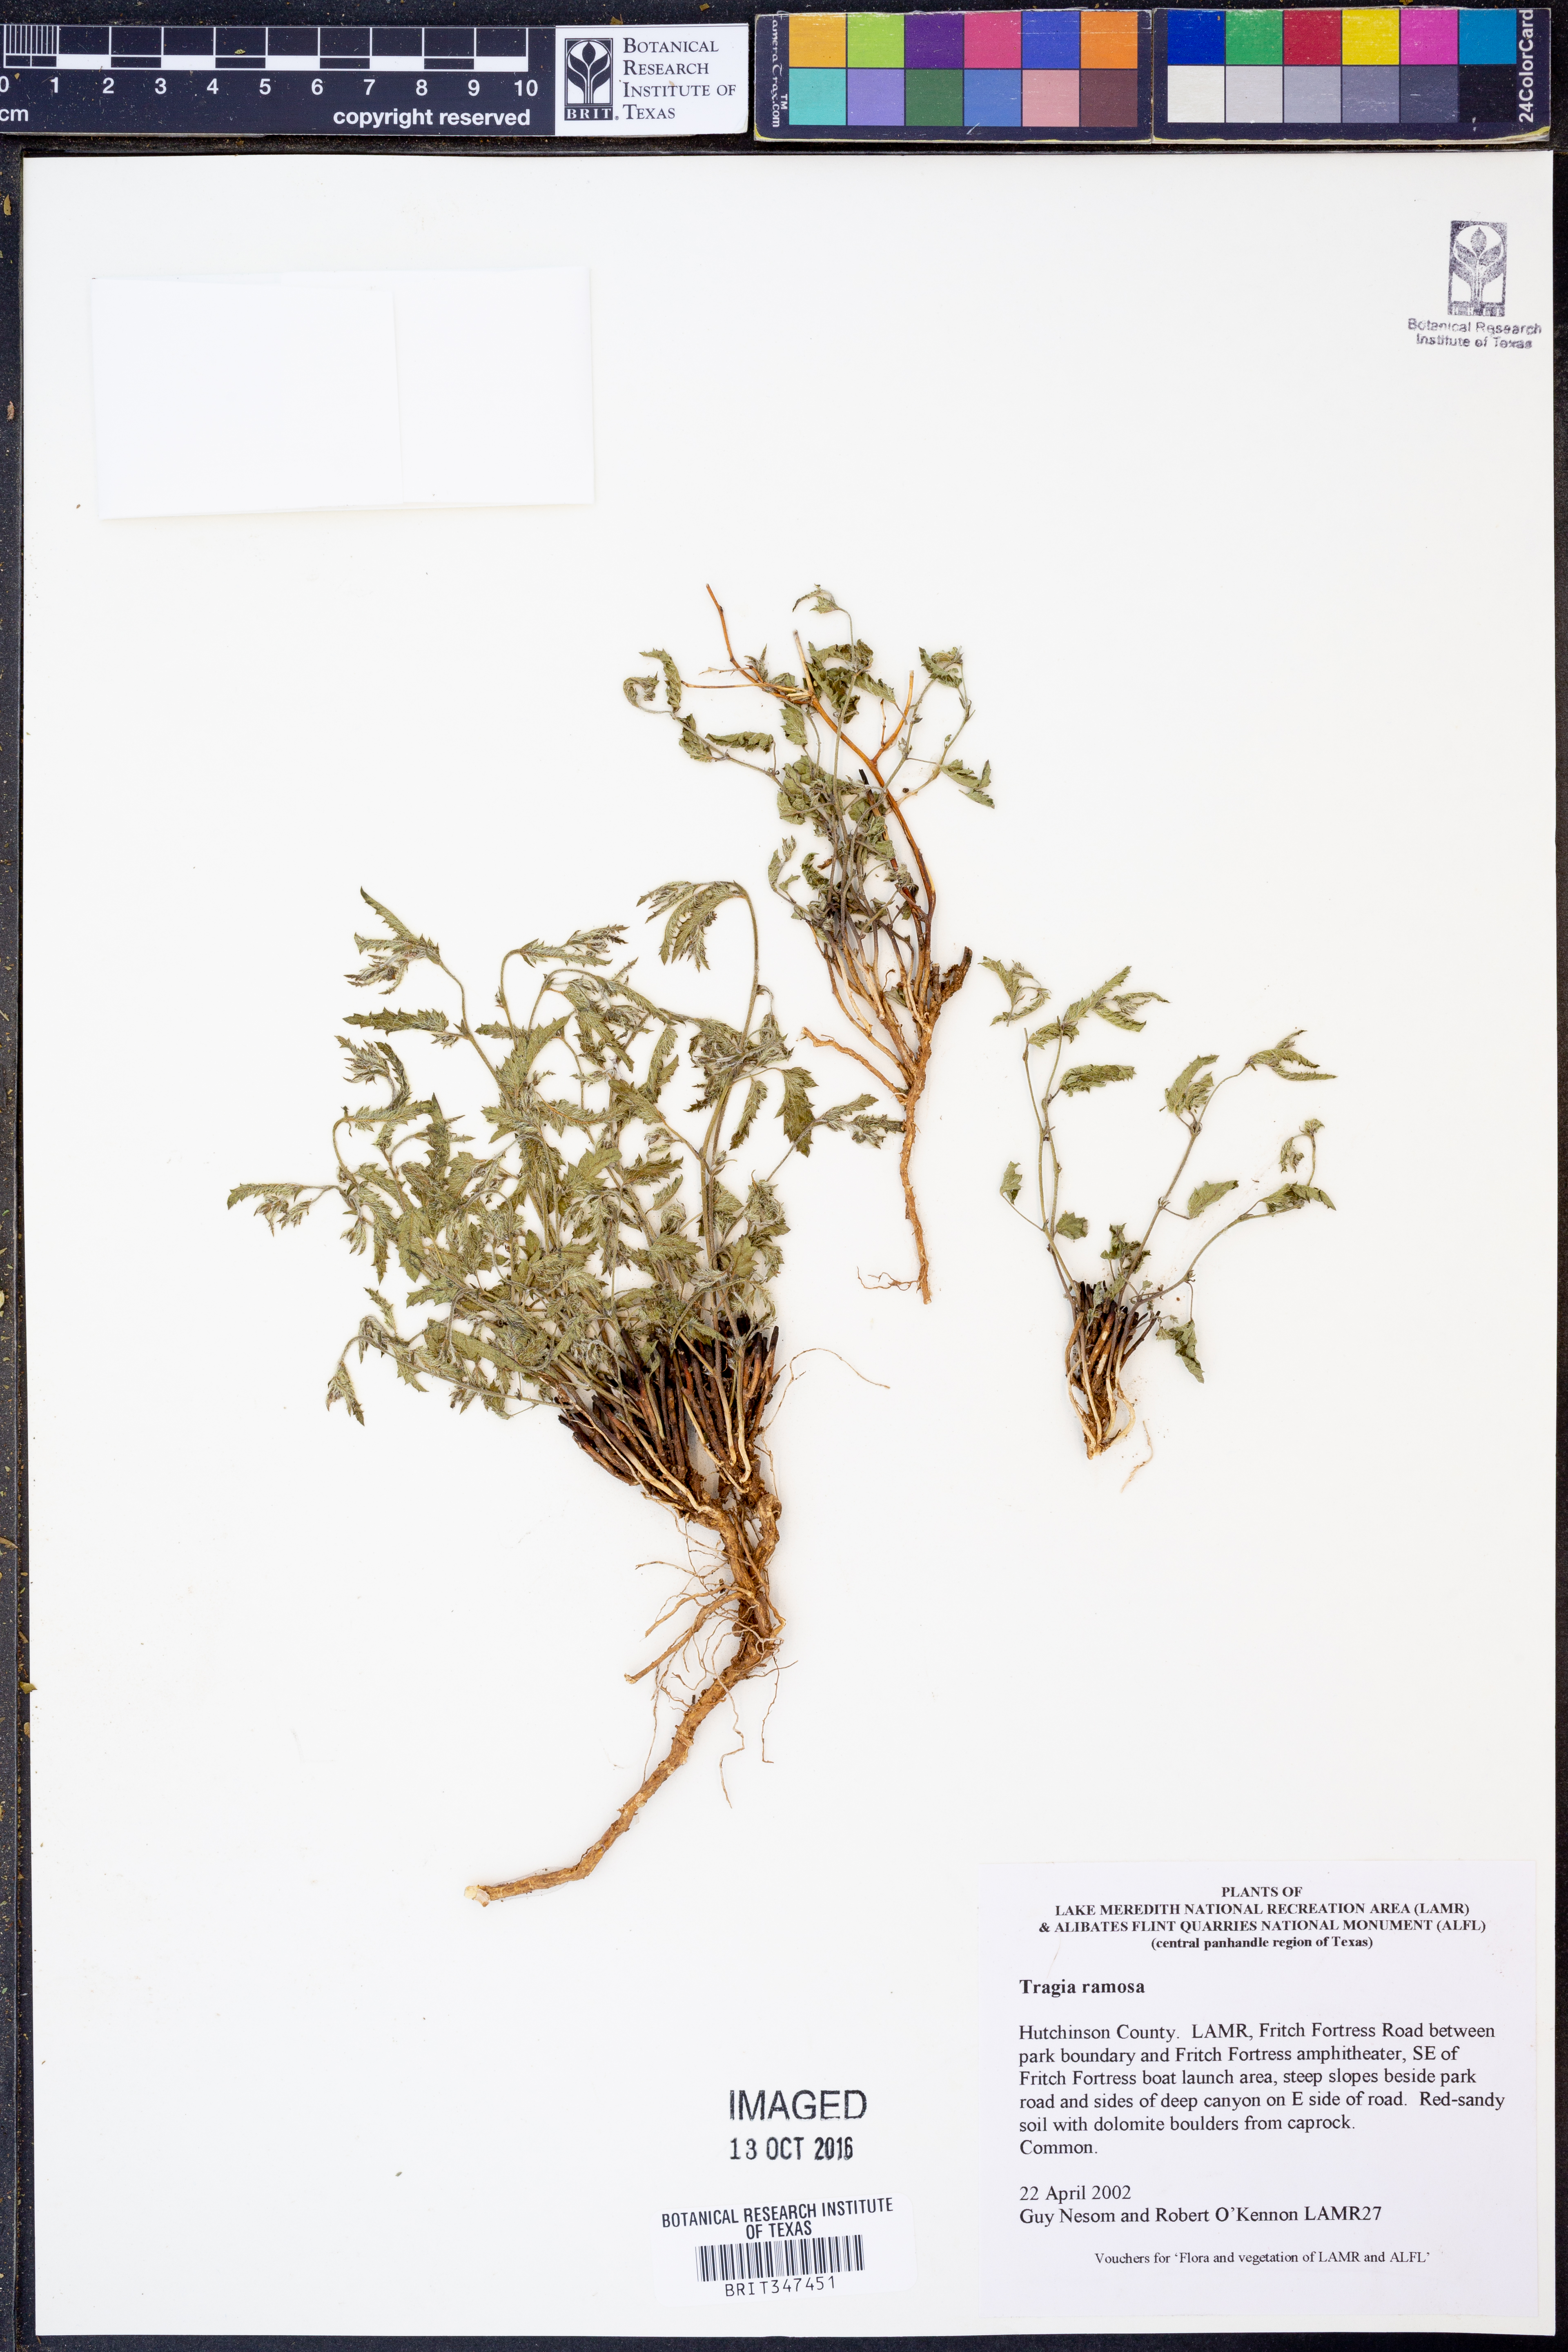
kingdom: Plantae
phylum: Tracheophyta
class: Magnoliopsida
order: Malpighiales
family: Euphorbiaceae
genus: Tragia
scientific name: Tragia ramosa
